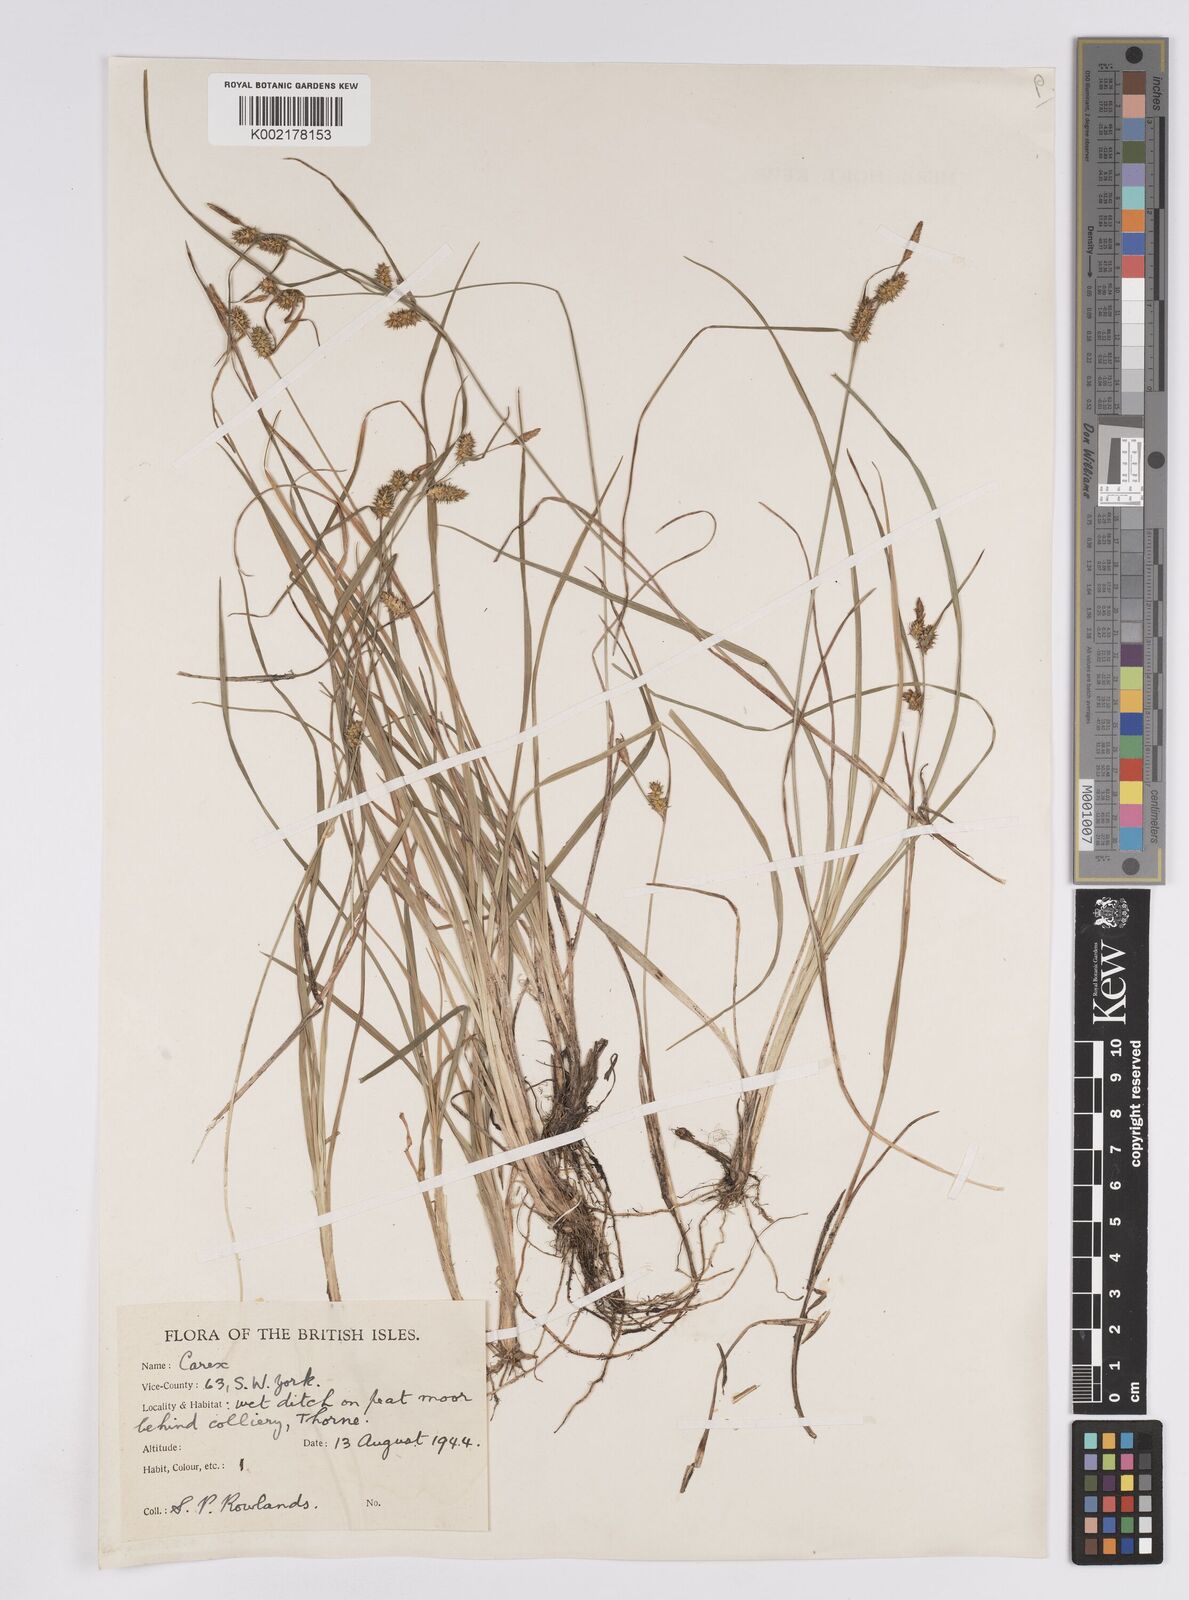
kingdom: Plantae
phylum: Tracheophyta
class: Liliopsida
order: Poales
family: Cyperaceae
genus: Carex
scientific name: Carex demissa
